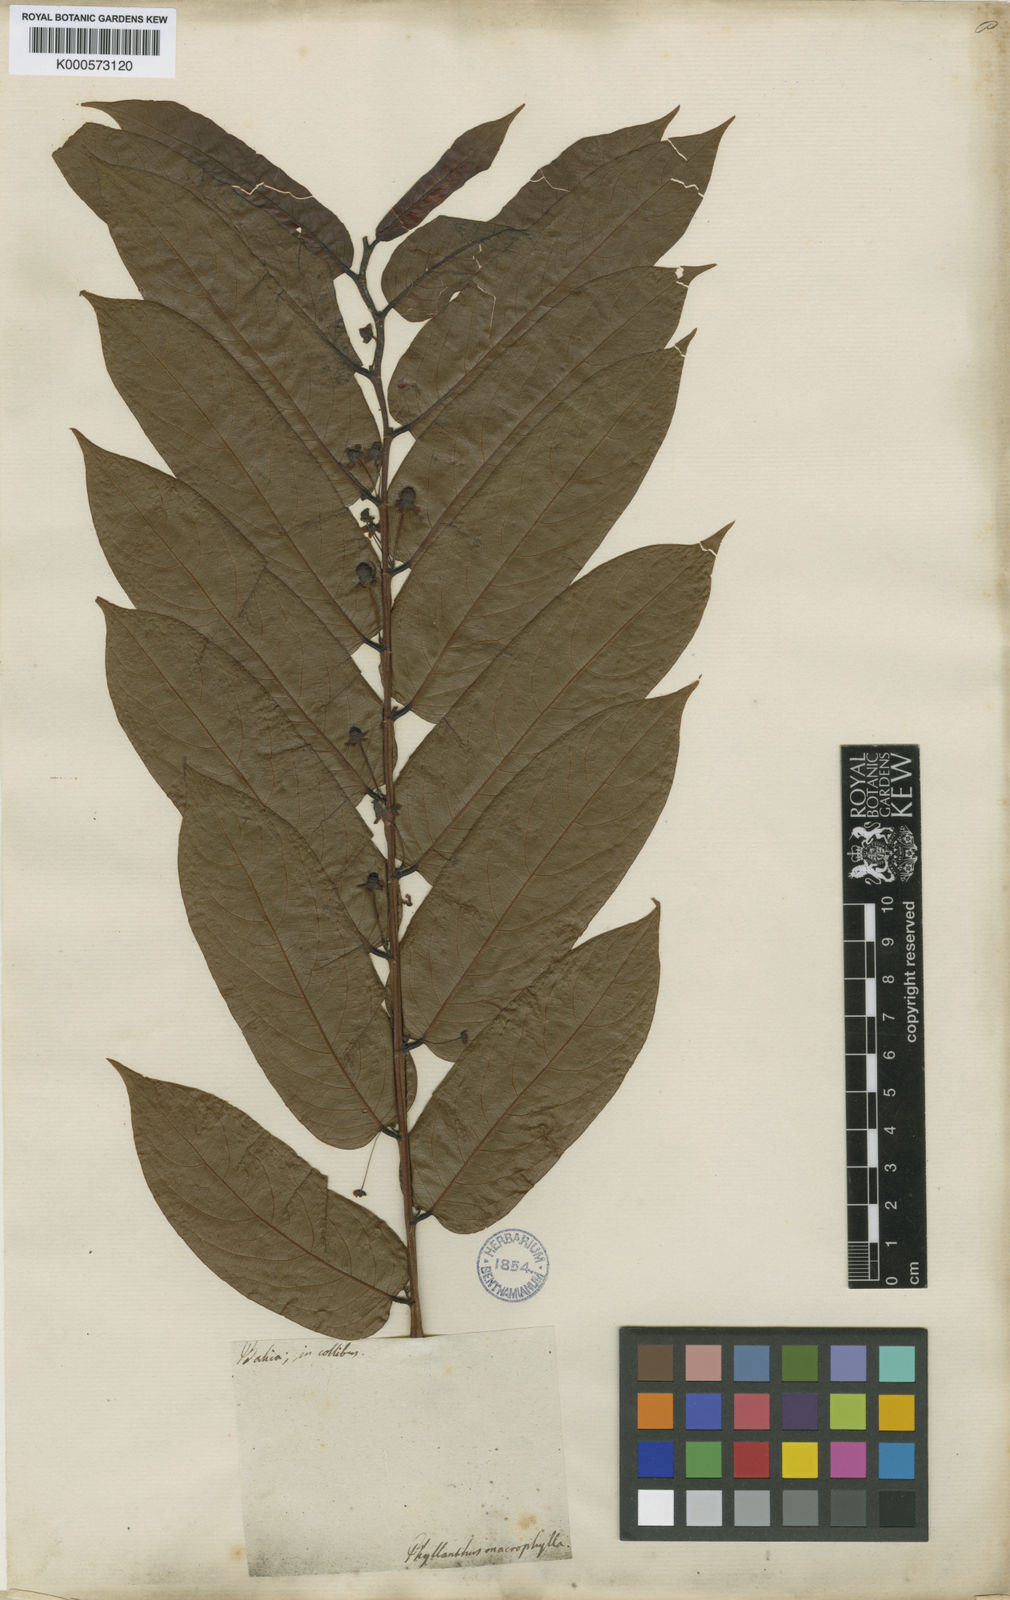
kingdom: Plantae
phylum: Tracheophyta
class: Magnoliopsida
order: Malpighiales
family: Phyllanthaceae
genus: Phyllanthus
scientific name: Phyllanthus juglandifolius
